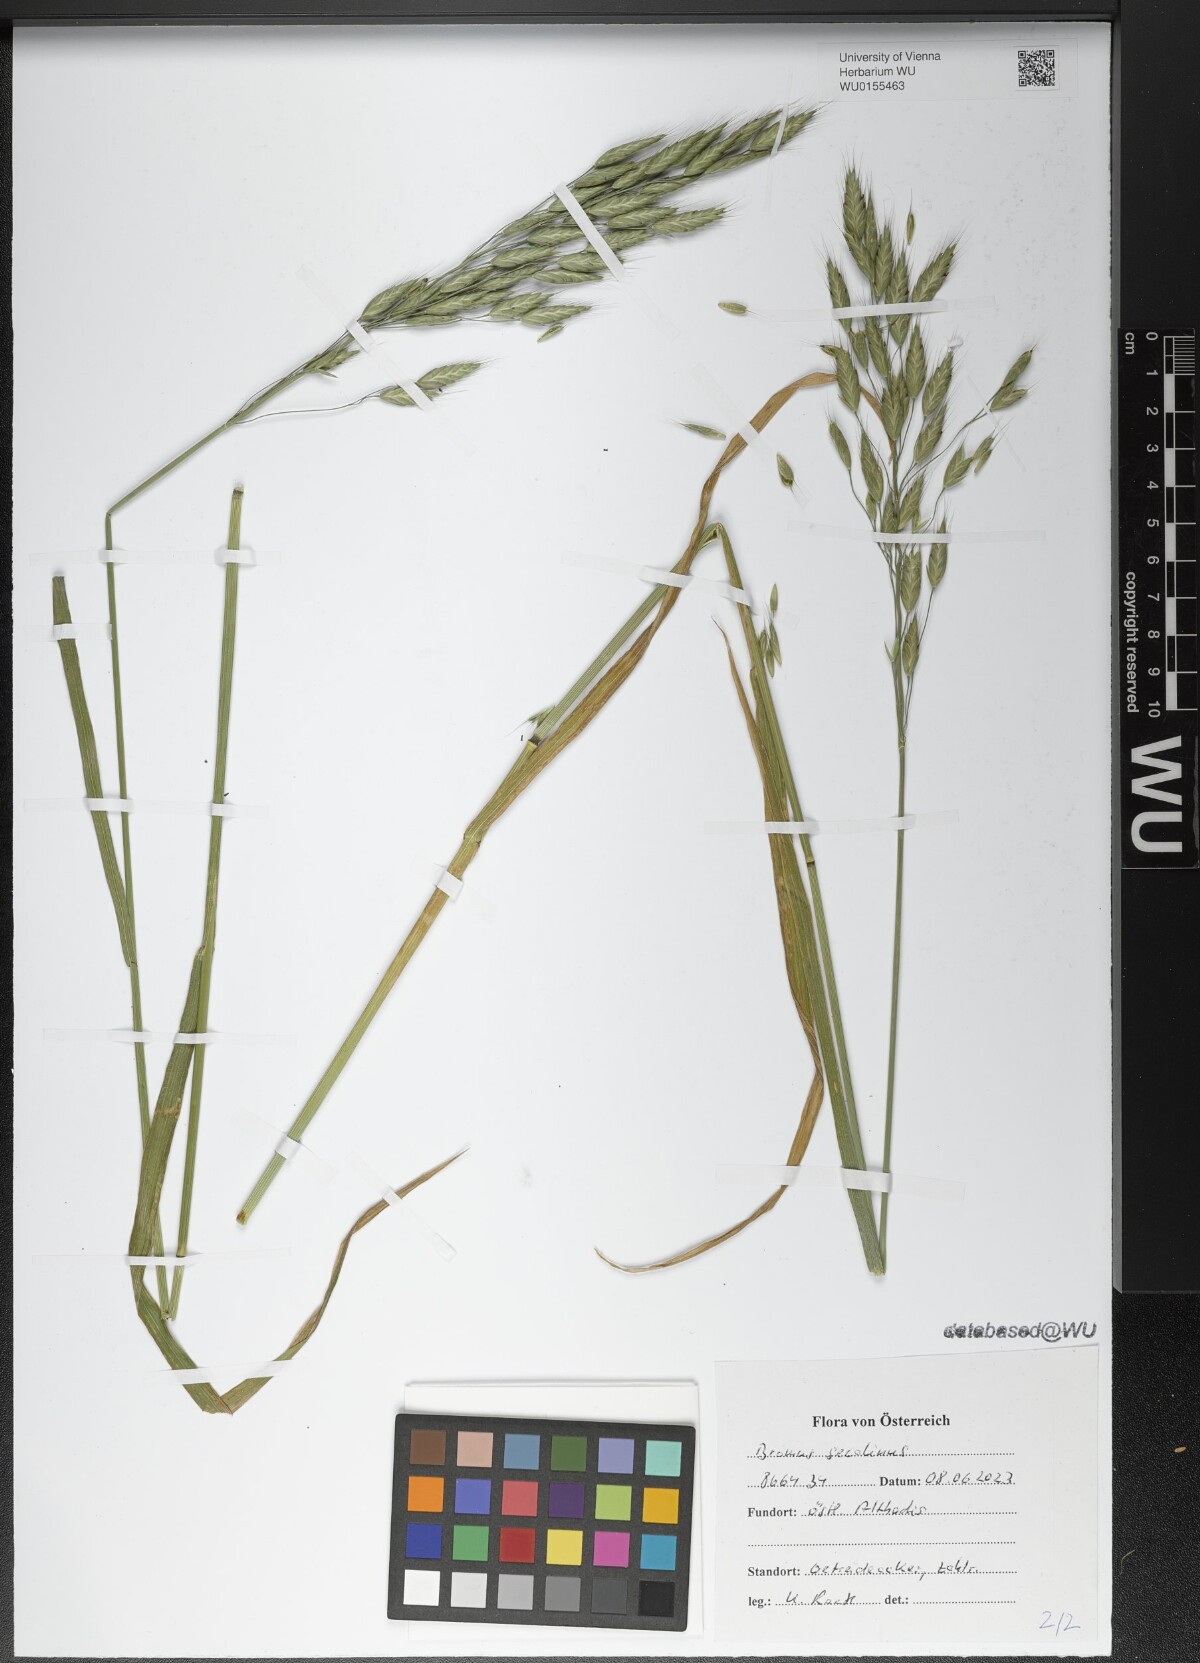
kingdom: Plantae
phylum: Tracheophyta
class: Liliopsida
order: Poales
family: Poaceae
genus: Bromus
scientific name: Bromus secalinus
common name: Rye brome
